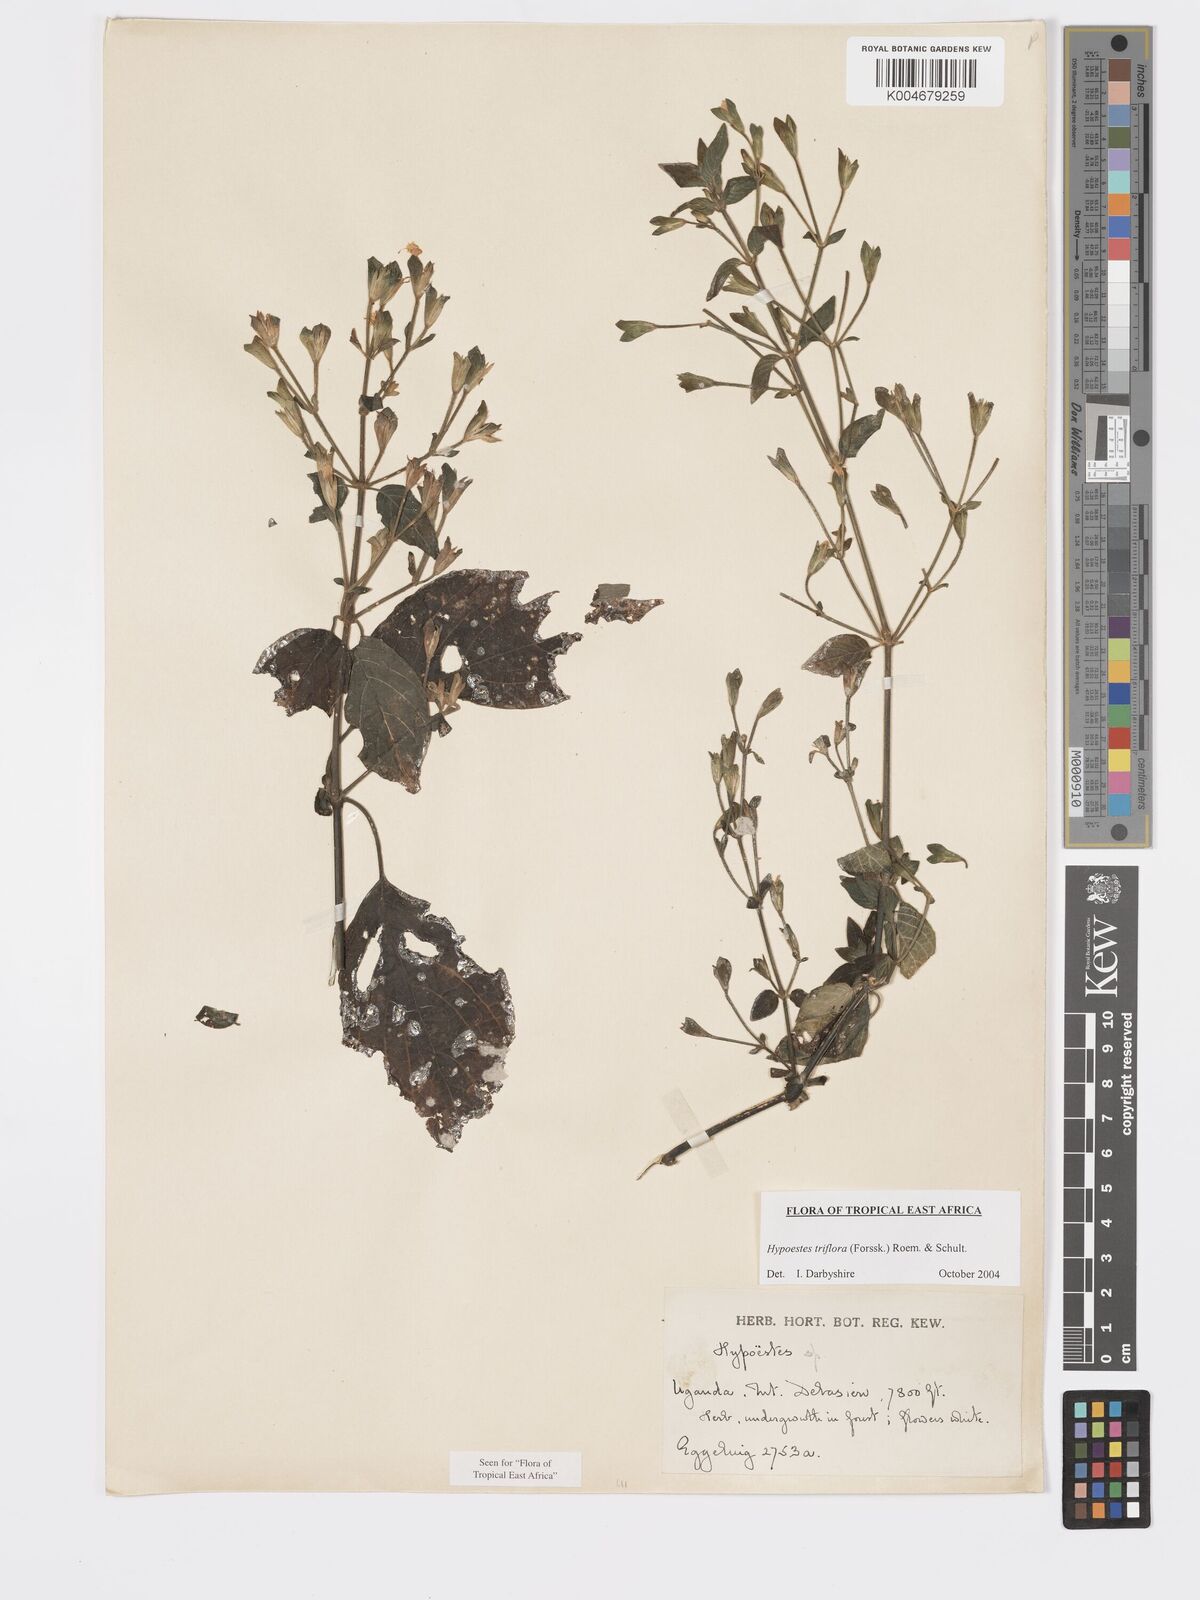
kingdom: Plantae
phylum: Tracheophyta
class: Magnoliopsida
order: Lamiales
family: Acanthaceae
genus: Hypoestes
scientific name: Hypoestes triflora
